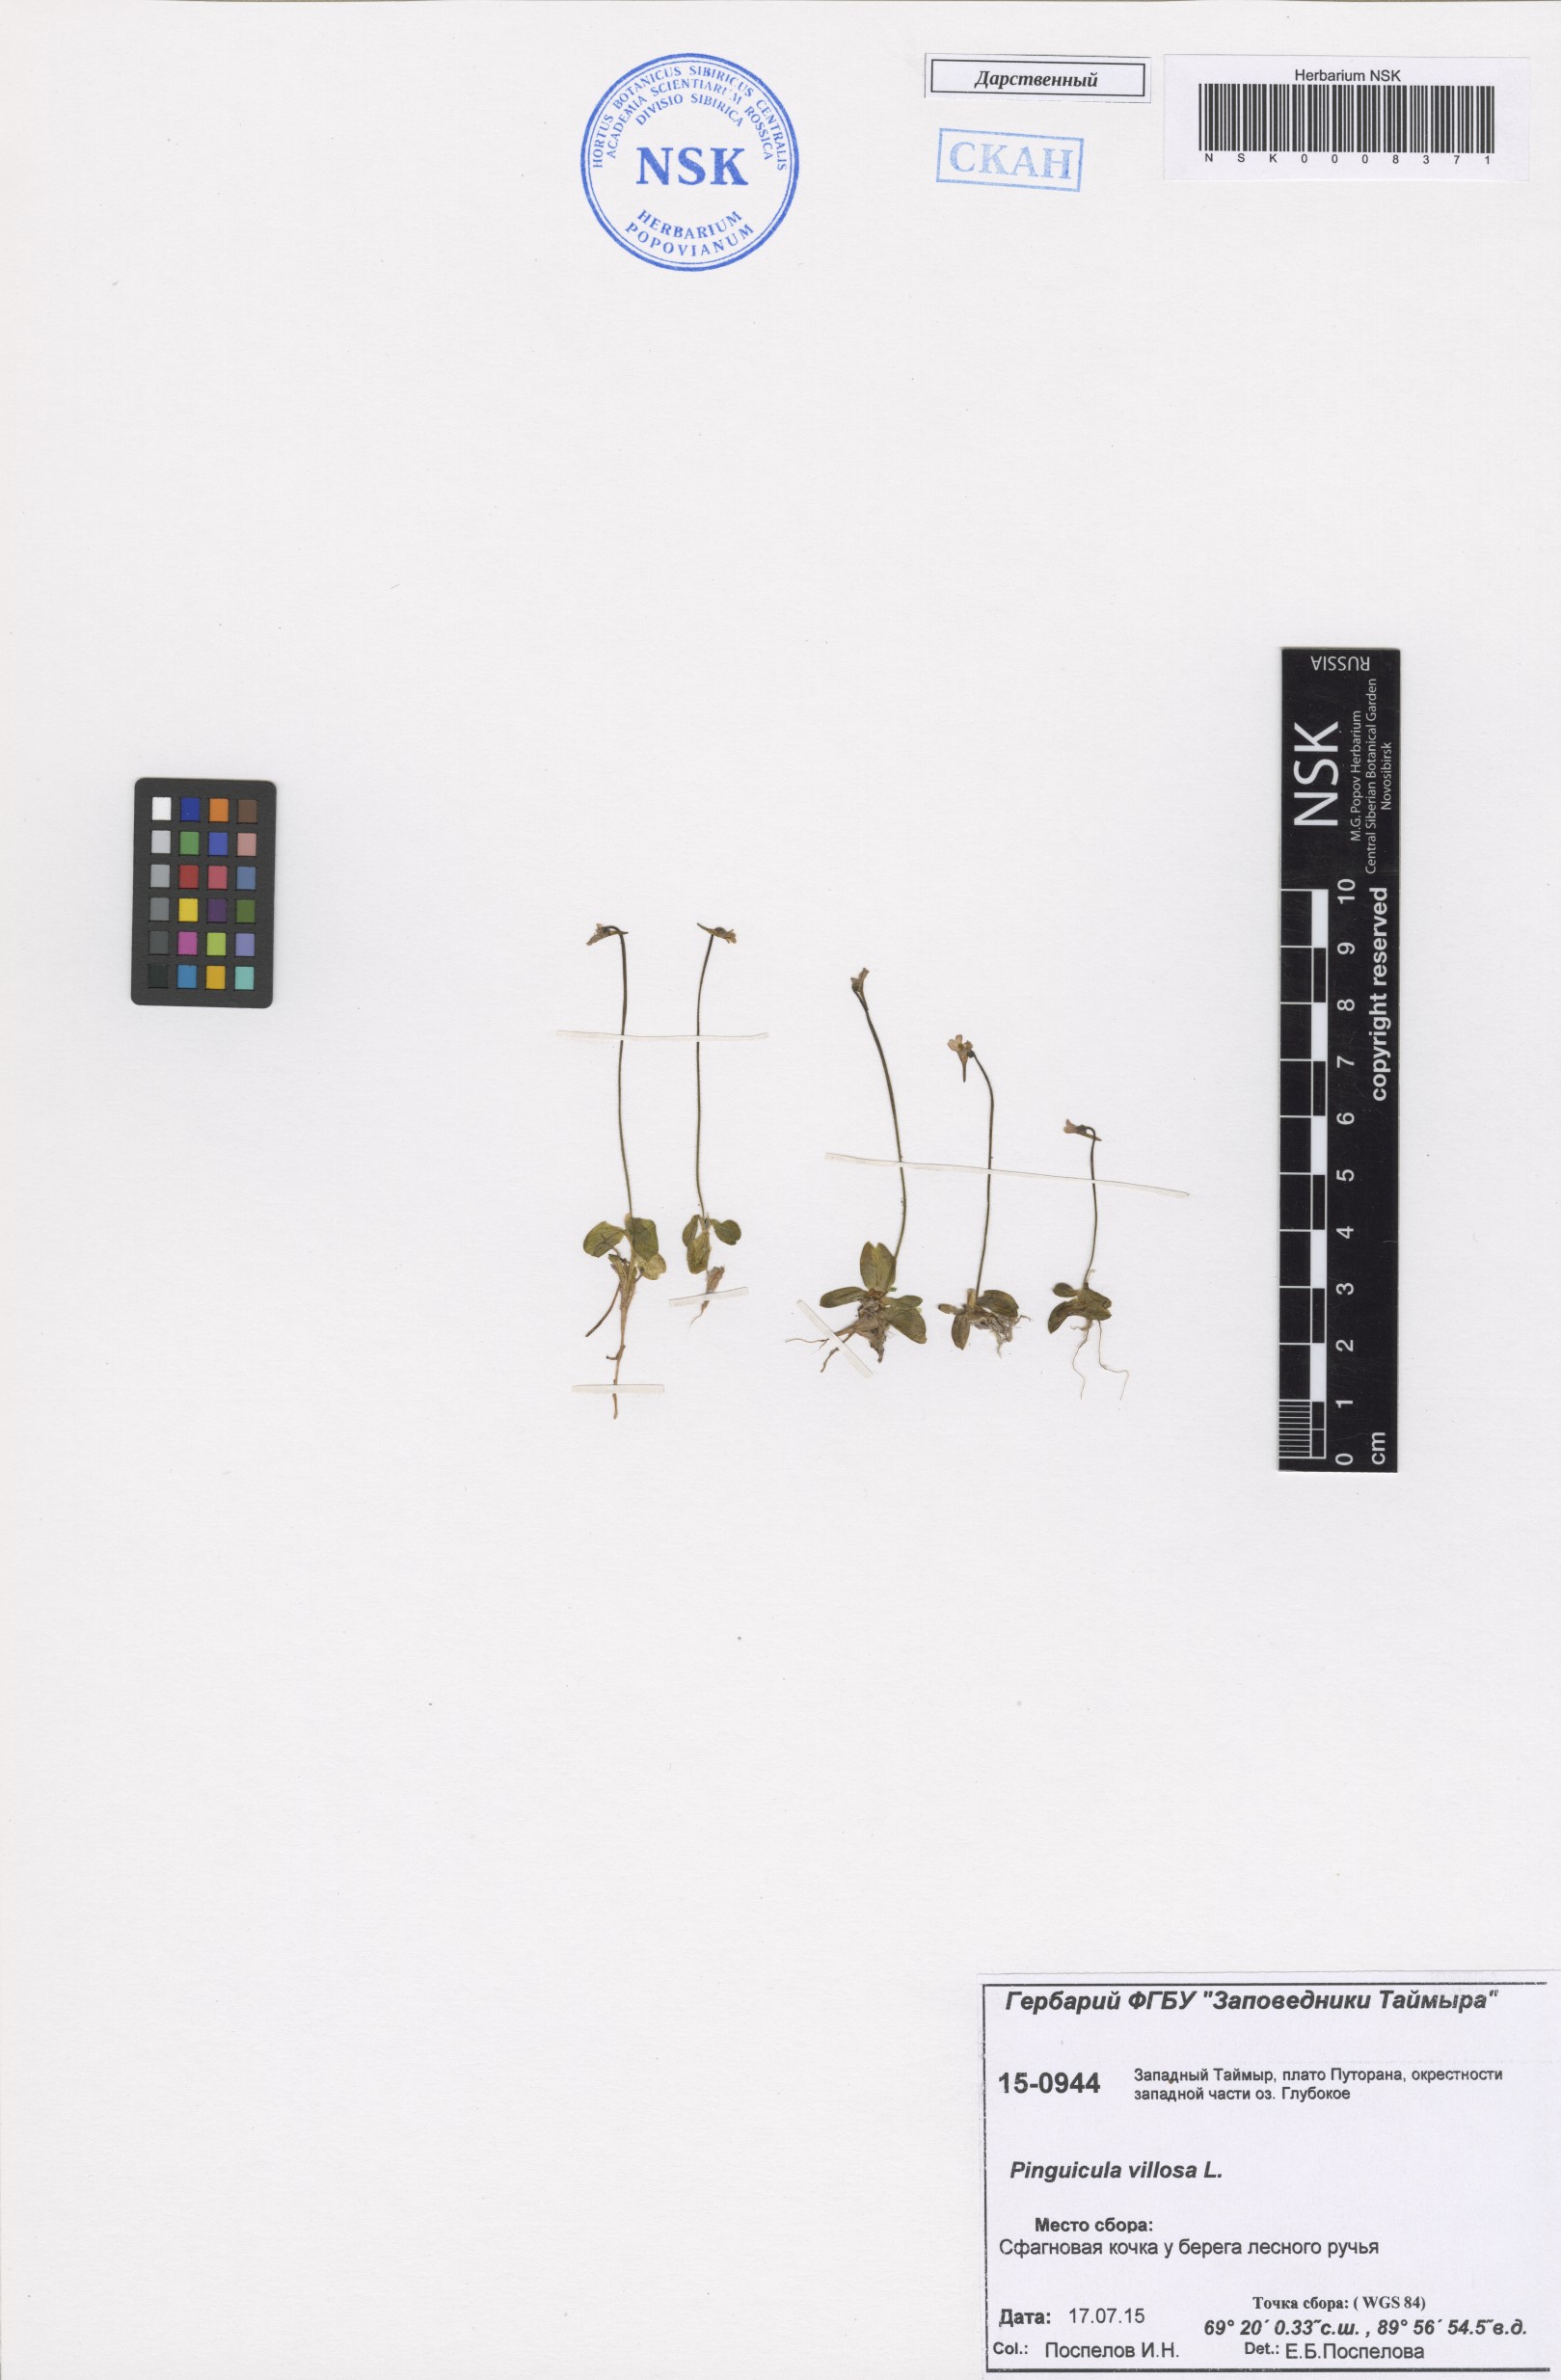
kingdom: Plantae
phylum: Tracheophyta
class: Magnoliopsida
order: Lamiales
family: Lentibulariaceae
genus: Pinguicula
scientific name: Pinguicula villosa
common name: Hairy butterwort
